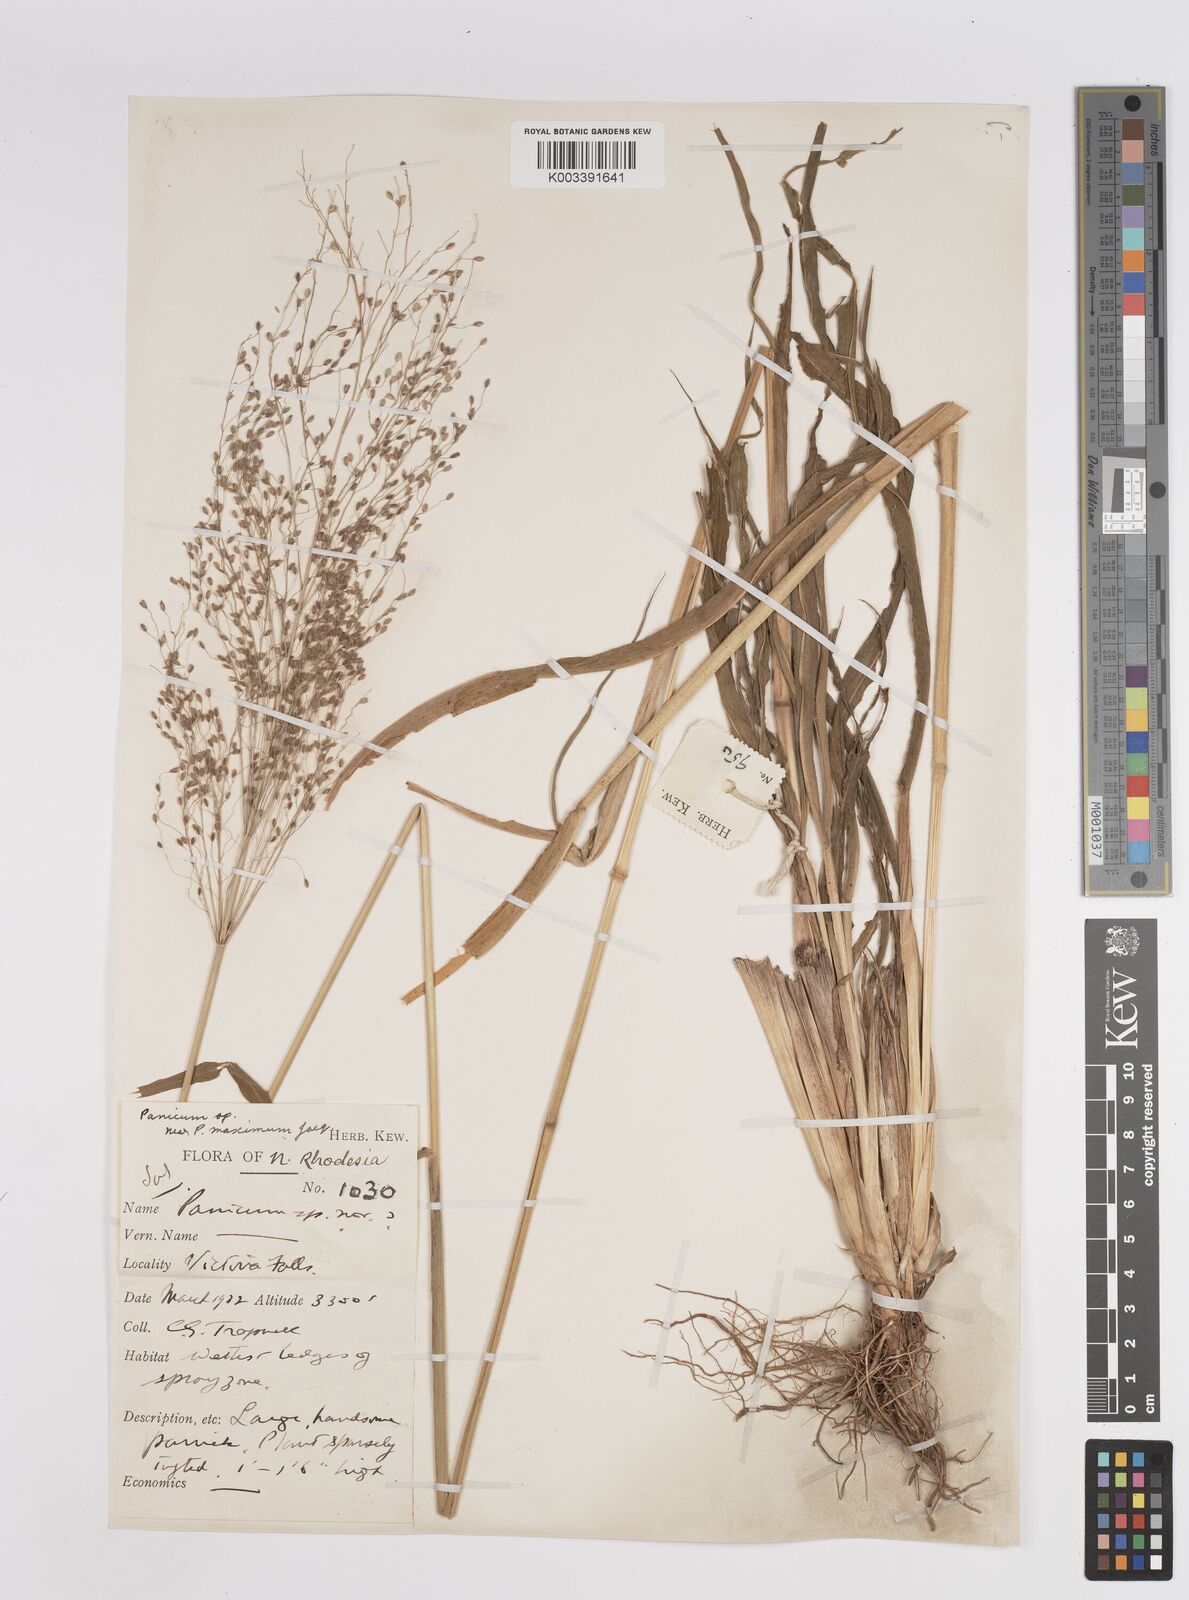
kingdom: Plantae
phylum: Tracheophyta
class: Liliopsida
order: Poales
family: Poaceae
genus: Megathyrsus
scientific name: Megathyrsus maximus
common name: Guineagrass
